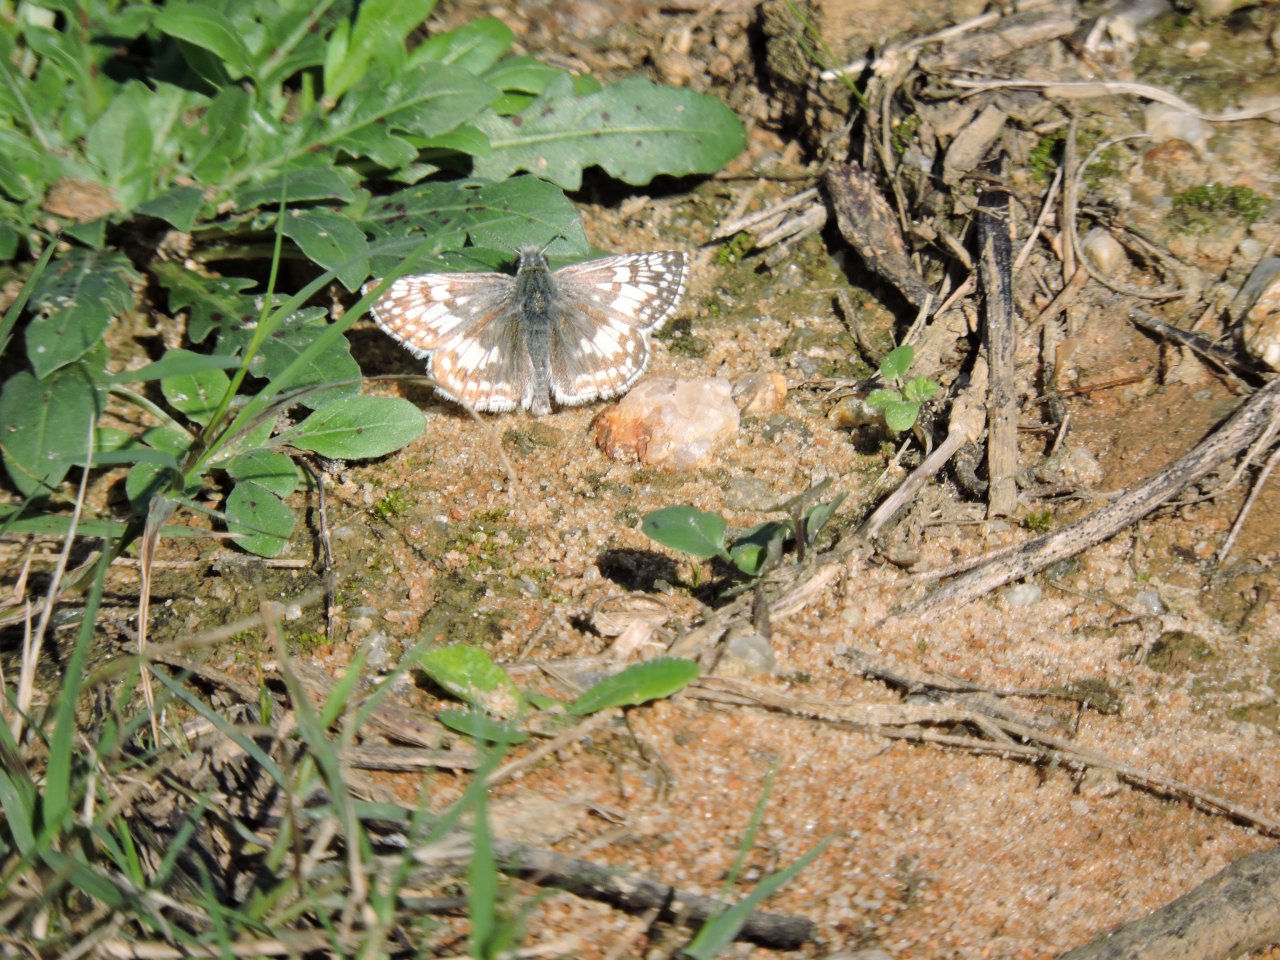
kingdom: Animalia
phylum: Arthropoda
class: Insecta
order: Lepidoptera
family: Hesperiidae
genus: Pyrgus
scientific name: Pyrgus
